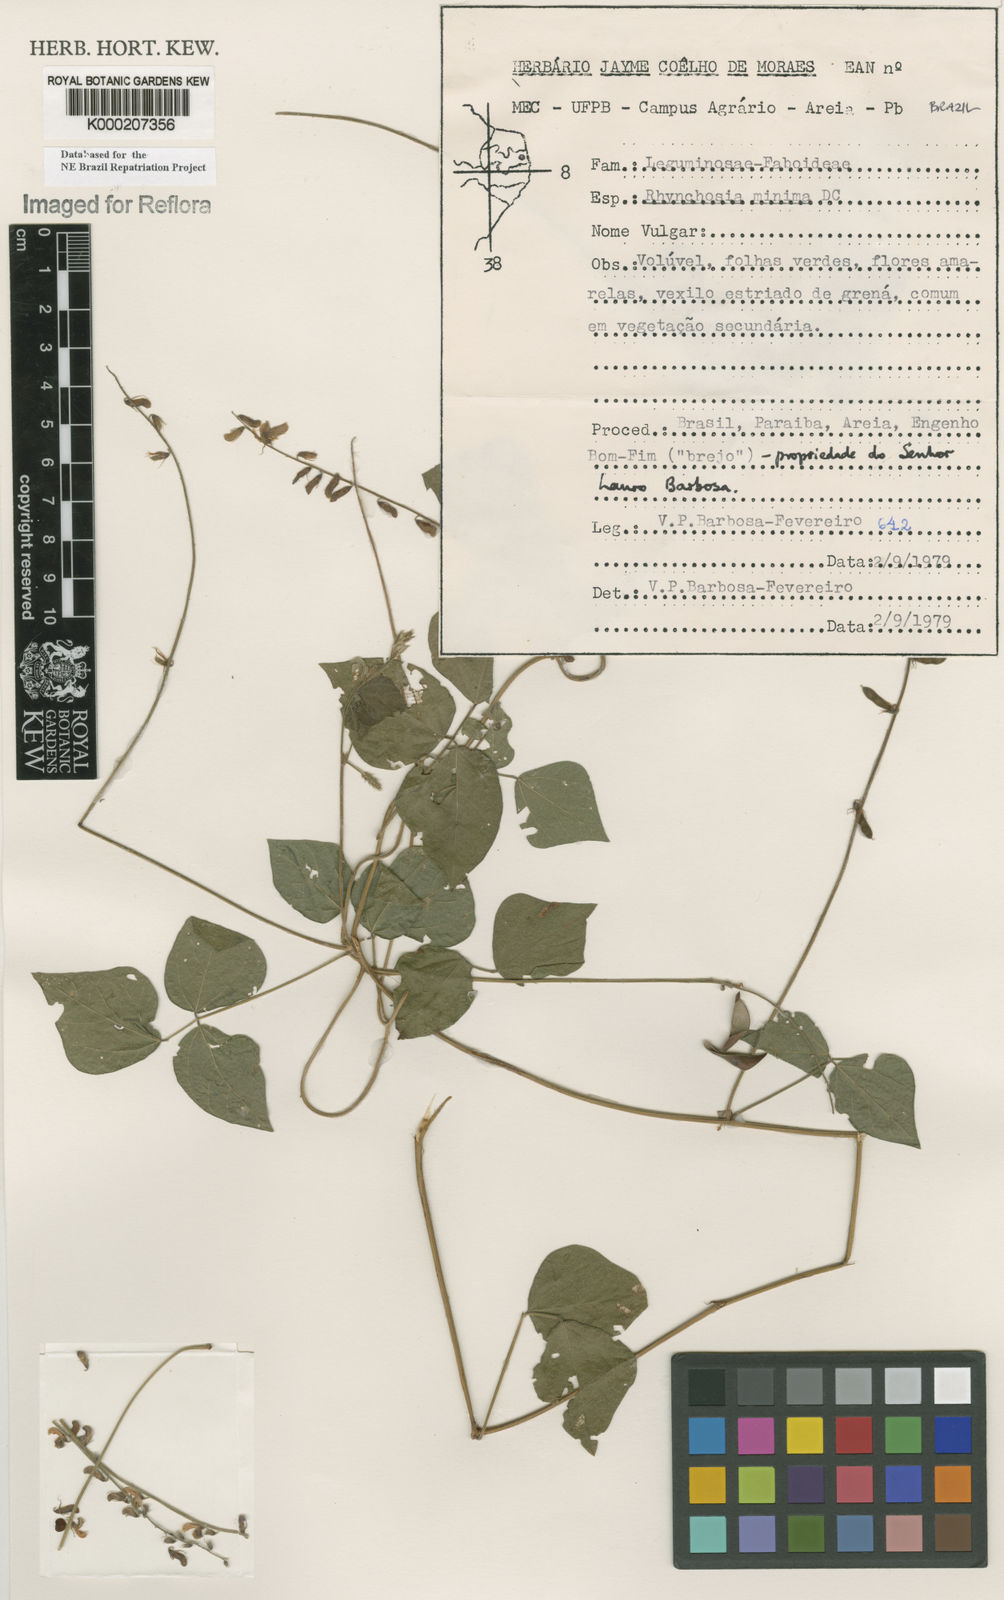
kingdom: Plantae
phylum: Tracheophyta
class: Magnoliopsida
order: Fabales
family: Fabaceae
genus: Rhynchosia
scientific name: Rhynchosia minima
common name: Least snoutbean
